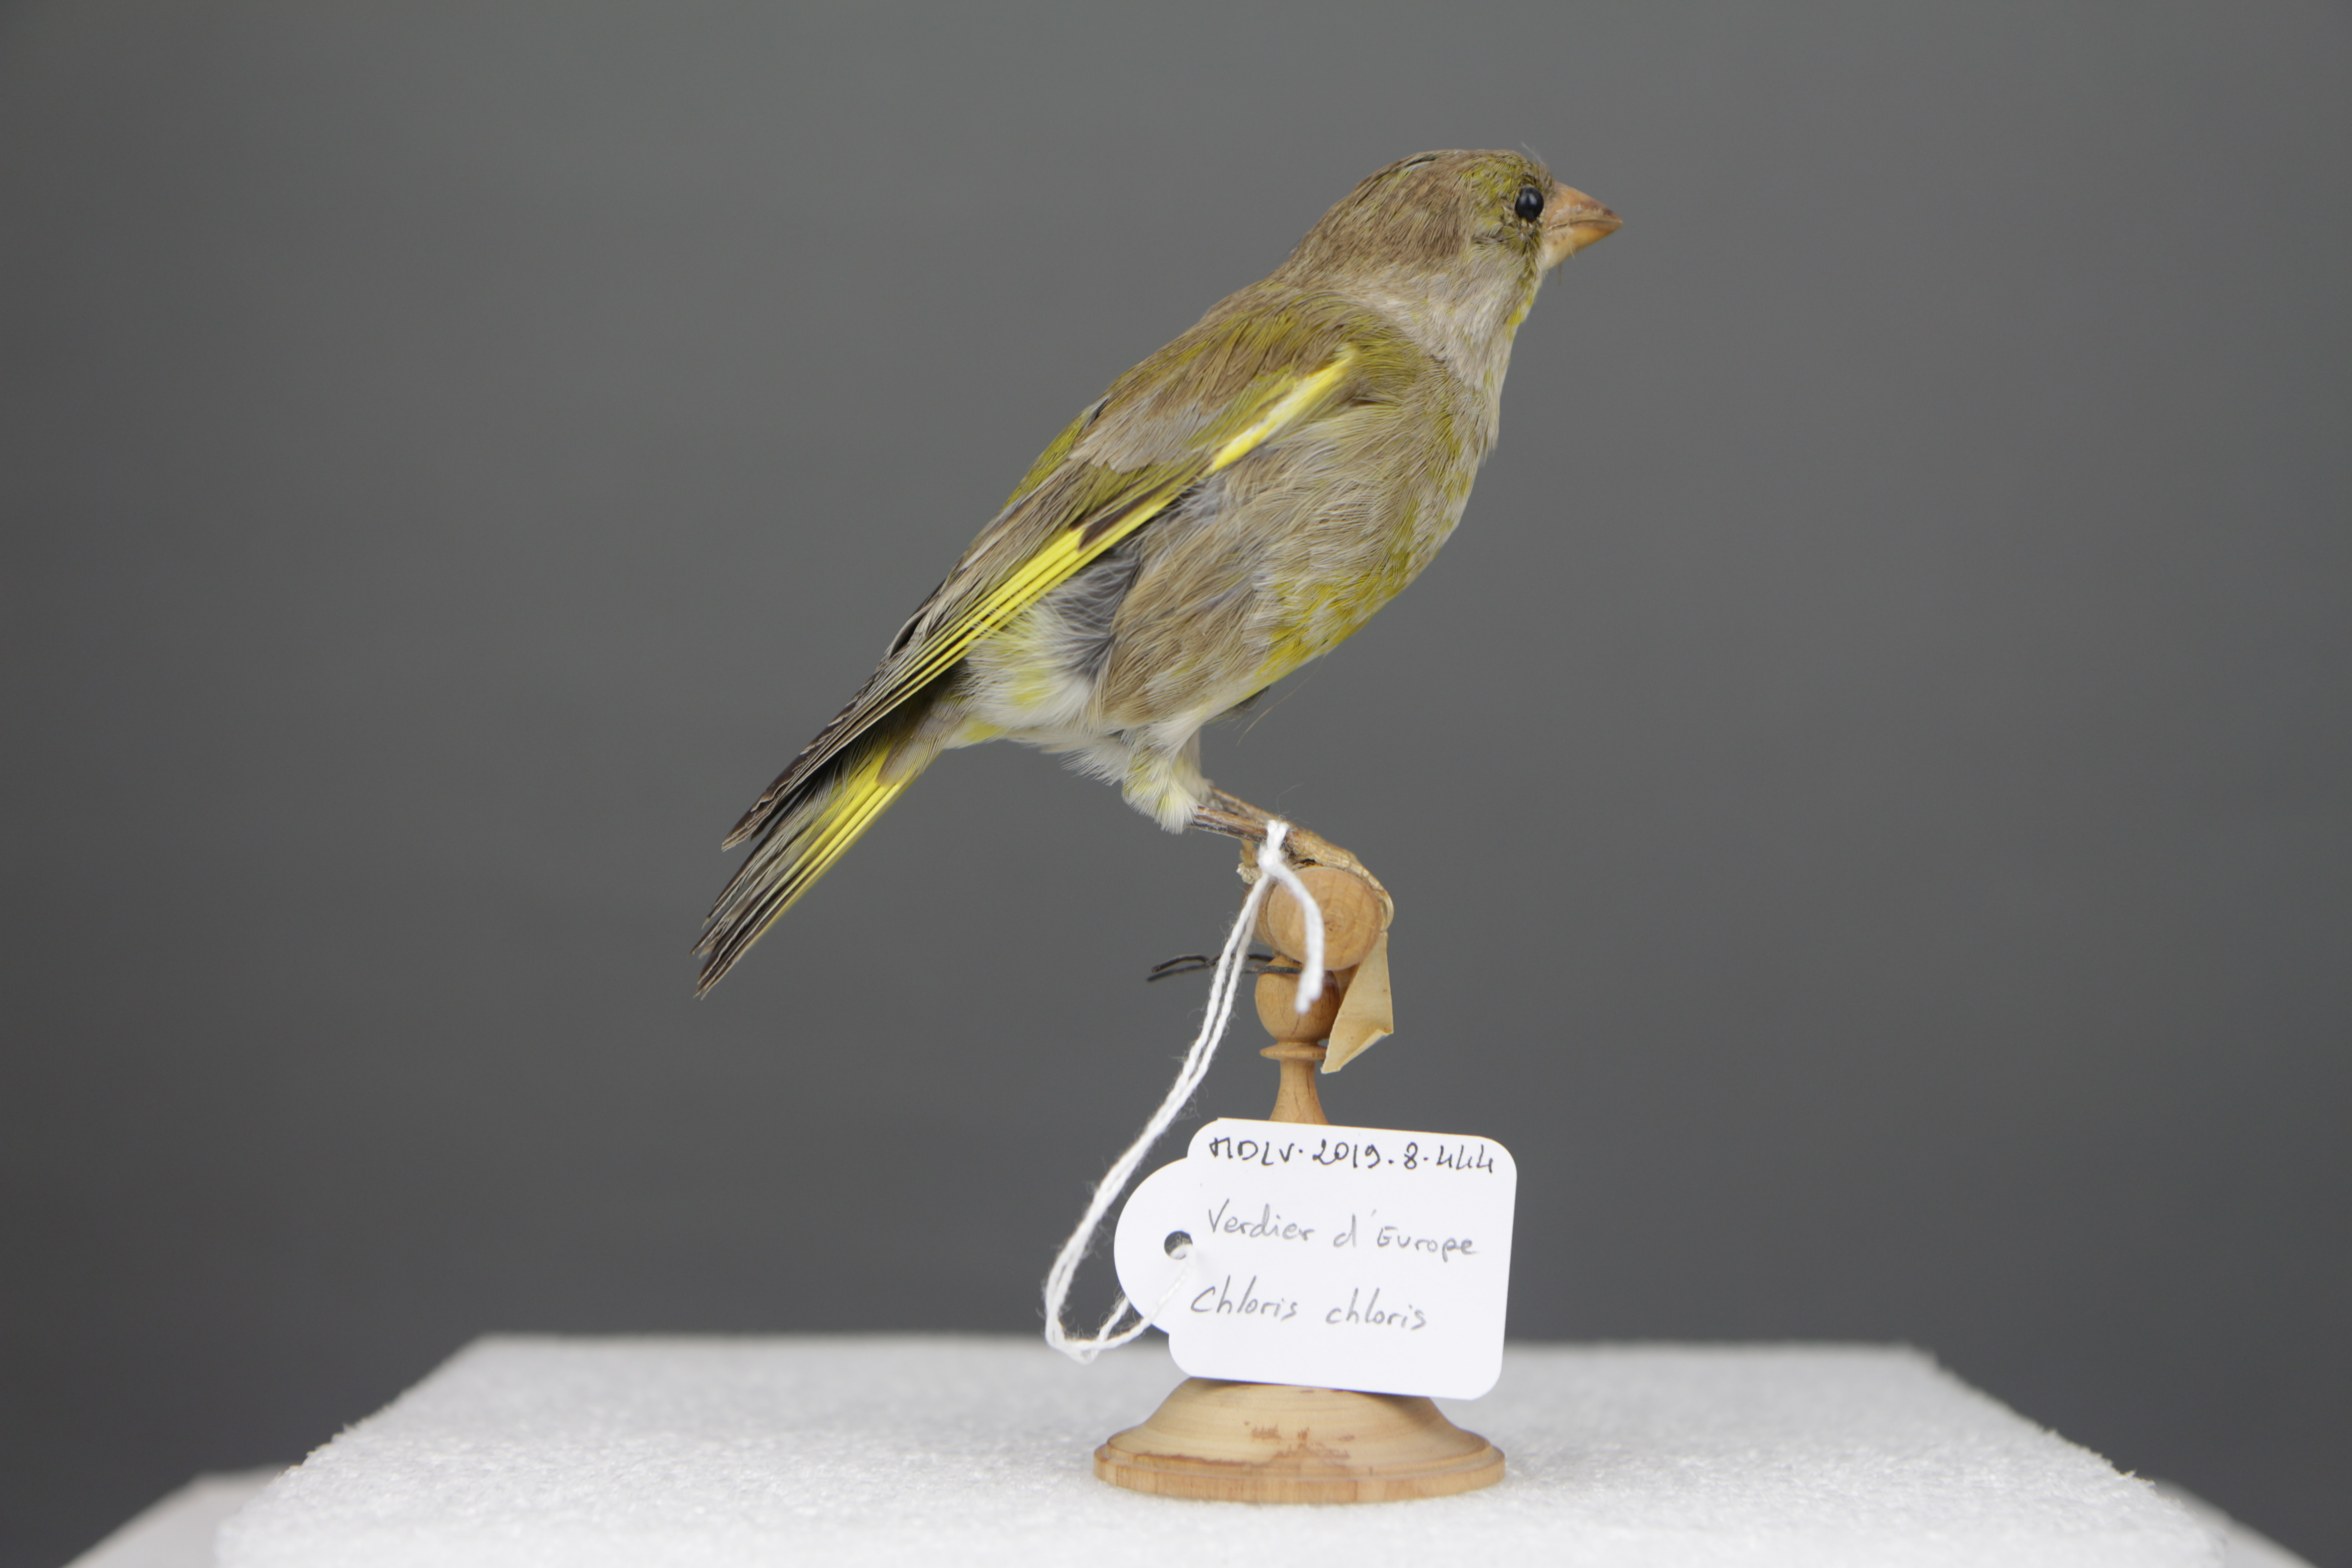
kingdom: Plantae
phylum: Tracheophyta
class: Liliopsida
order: Poales
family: Poaceae
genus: Chloris
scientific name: Chloris chloris
